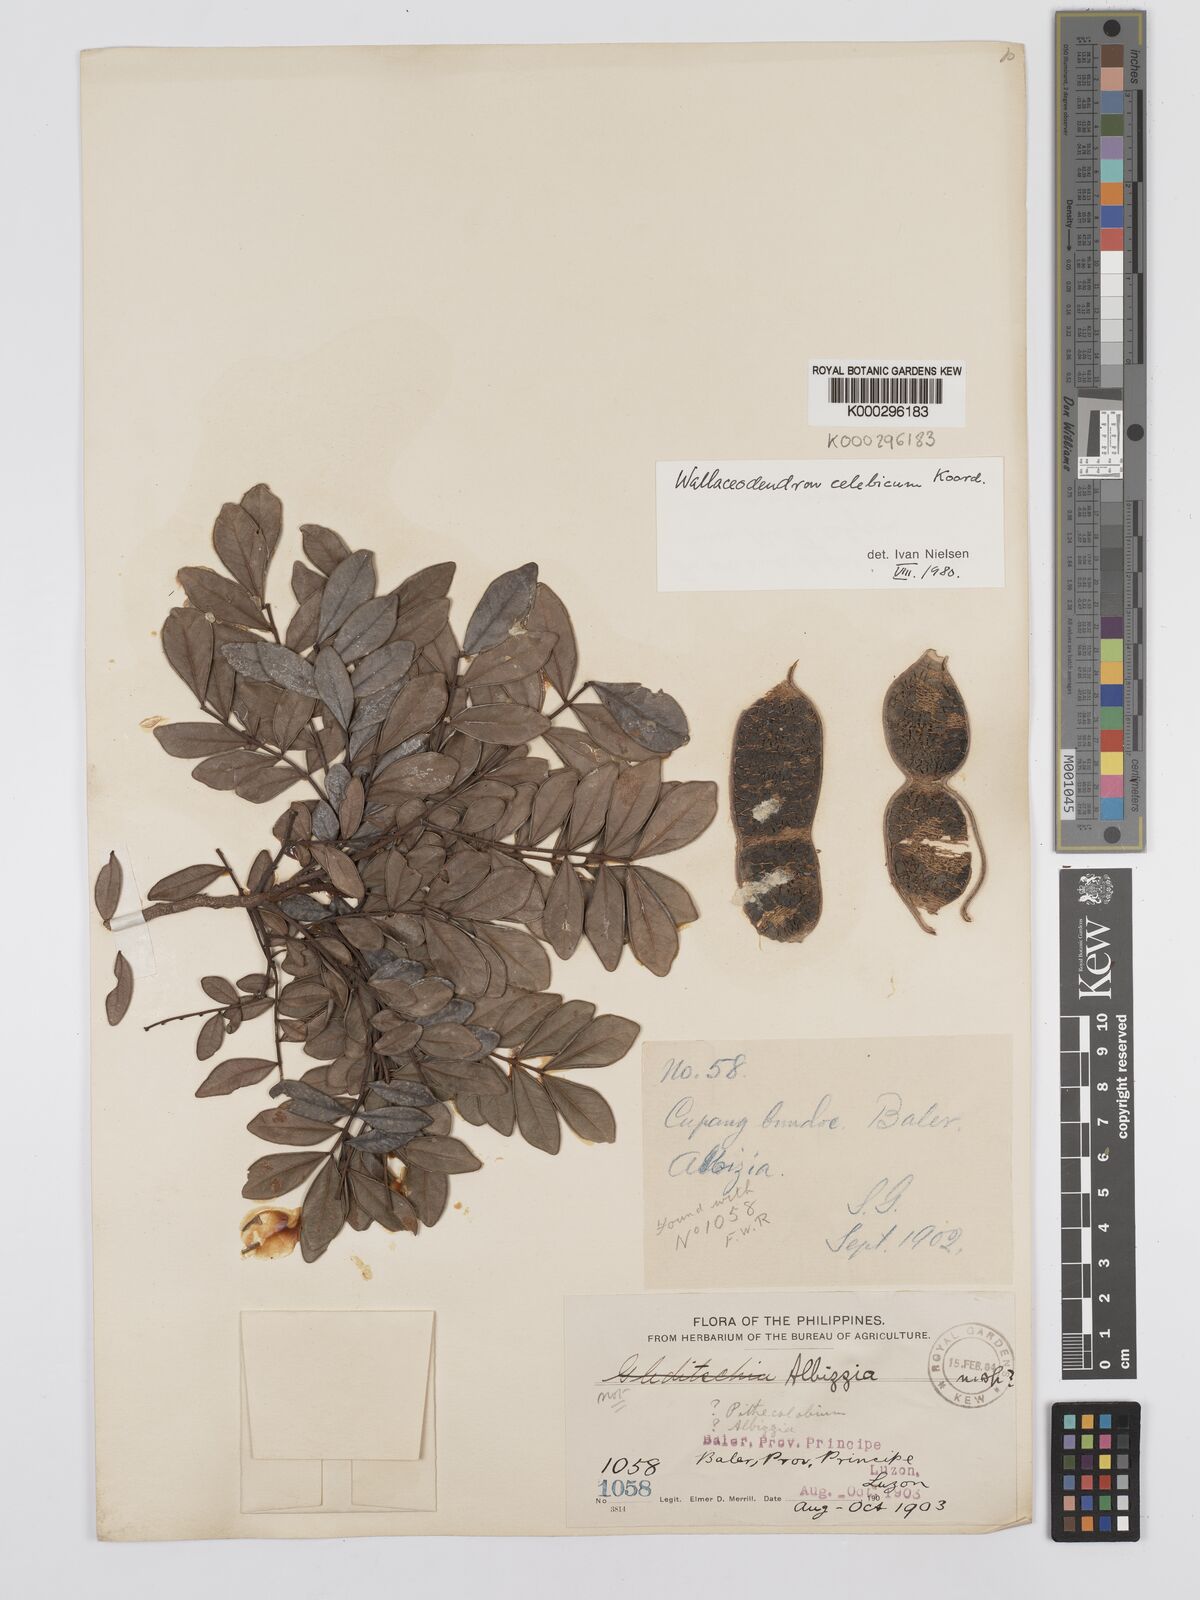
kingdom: Plantae
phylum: Tracheophyta
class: Magnoliopsida
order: Fabales
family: Fabaceae
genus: Wallaceodendron
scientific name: Wallaceodendron celebicum
